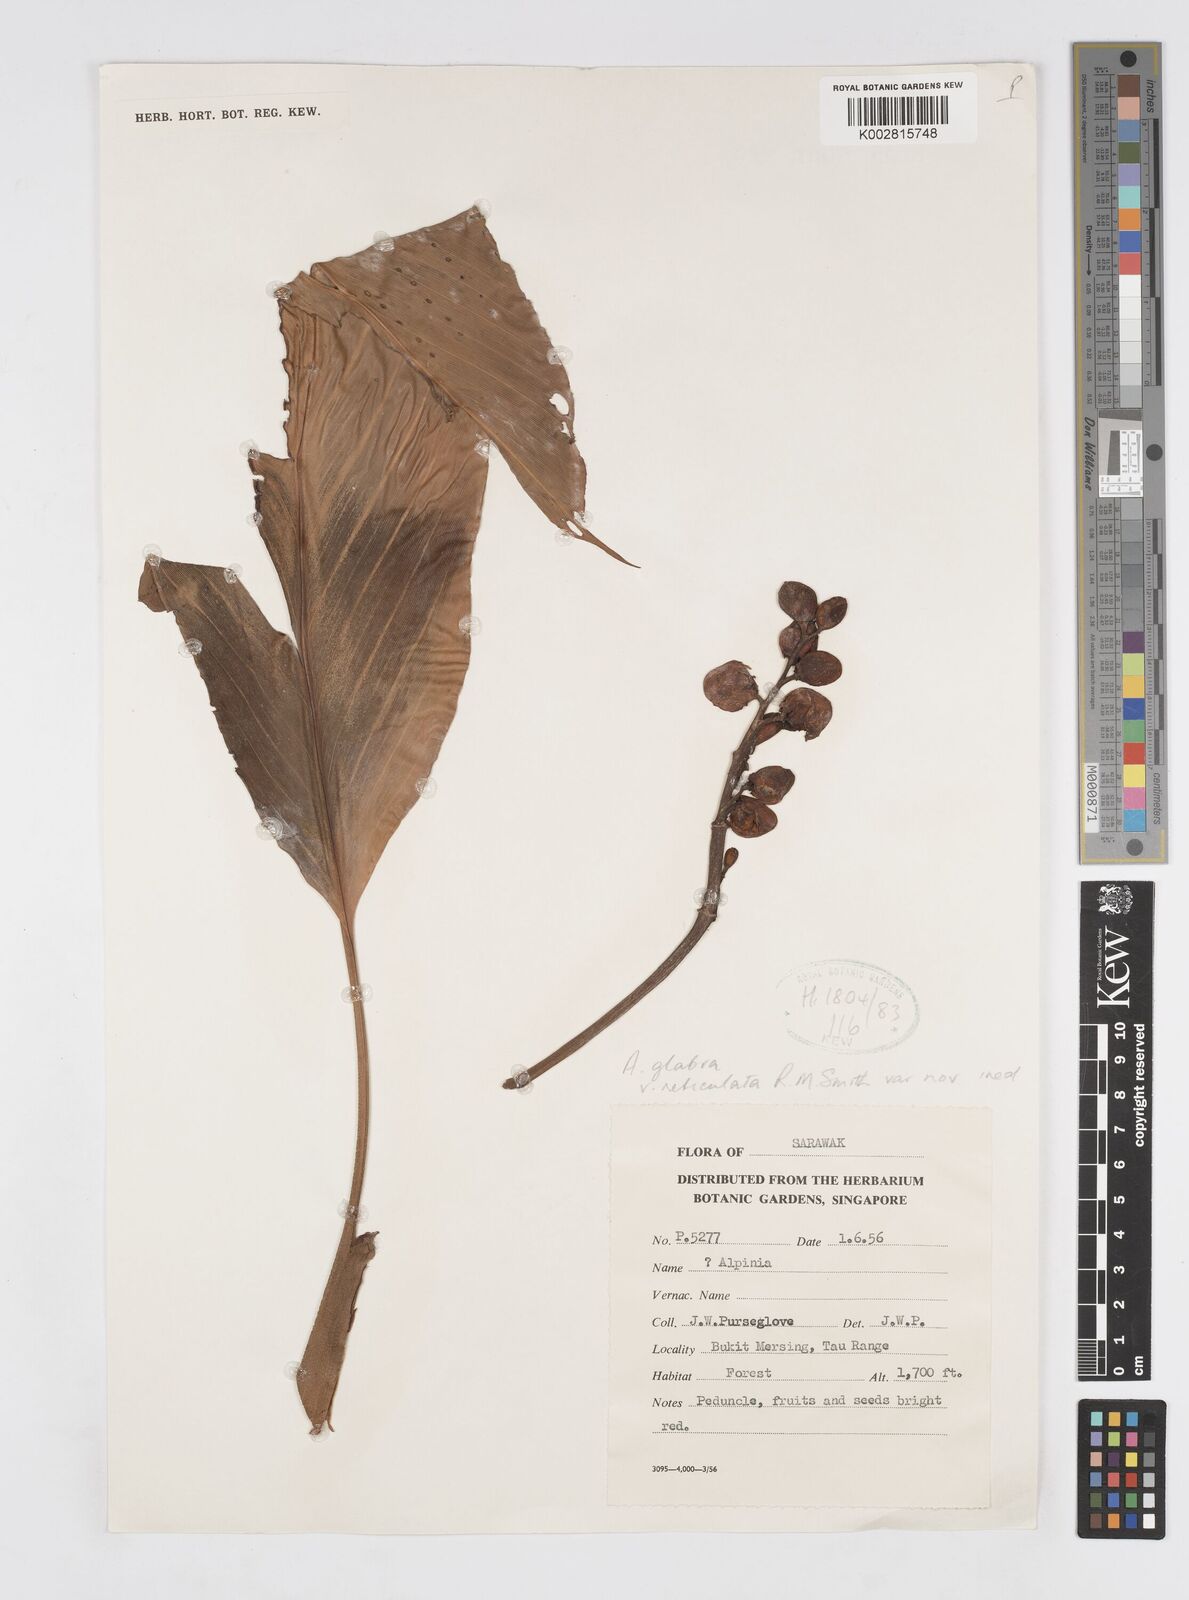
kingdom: Plantae
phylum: Tracheophyta
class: Liliopsida
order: Zingiberales
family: Zingiberaceae
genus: Alpinia
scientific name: Alpinia glabra
